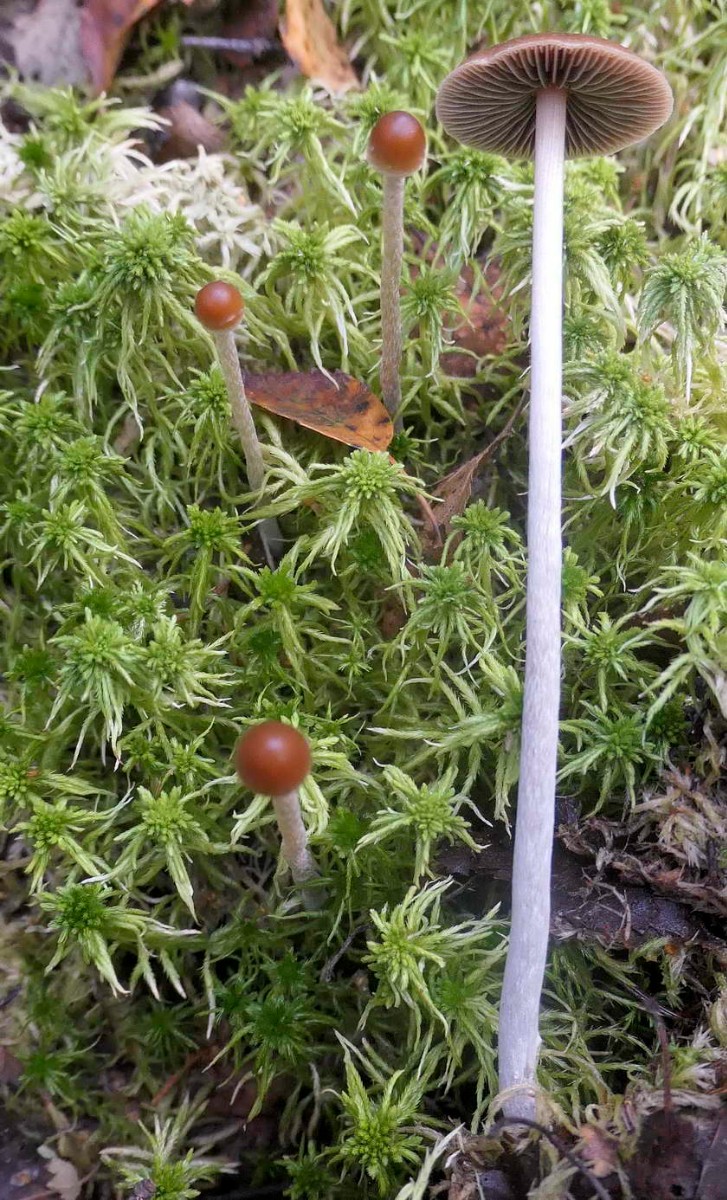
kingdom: Fungi
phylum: Basidiomycota
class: Agaricomycetes
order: Agaricales
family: Strophariaceae
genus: Bogbodia
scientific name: Bogbodia uda
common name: tørve-svovlhat
